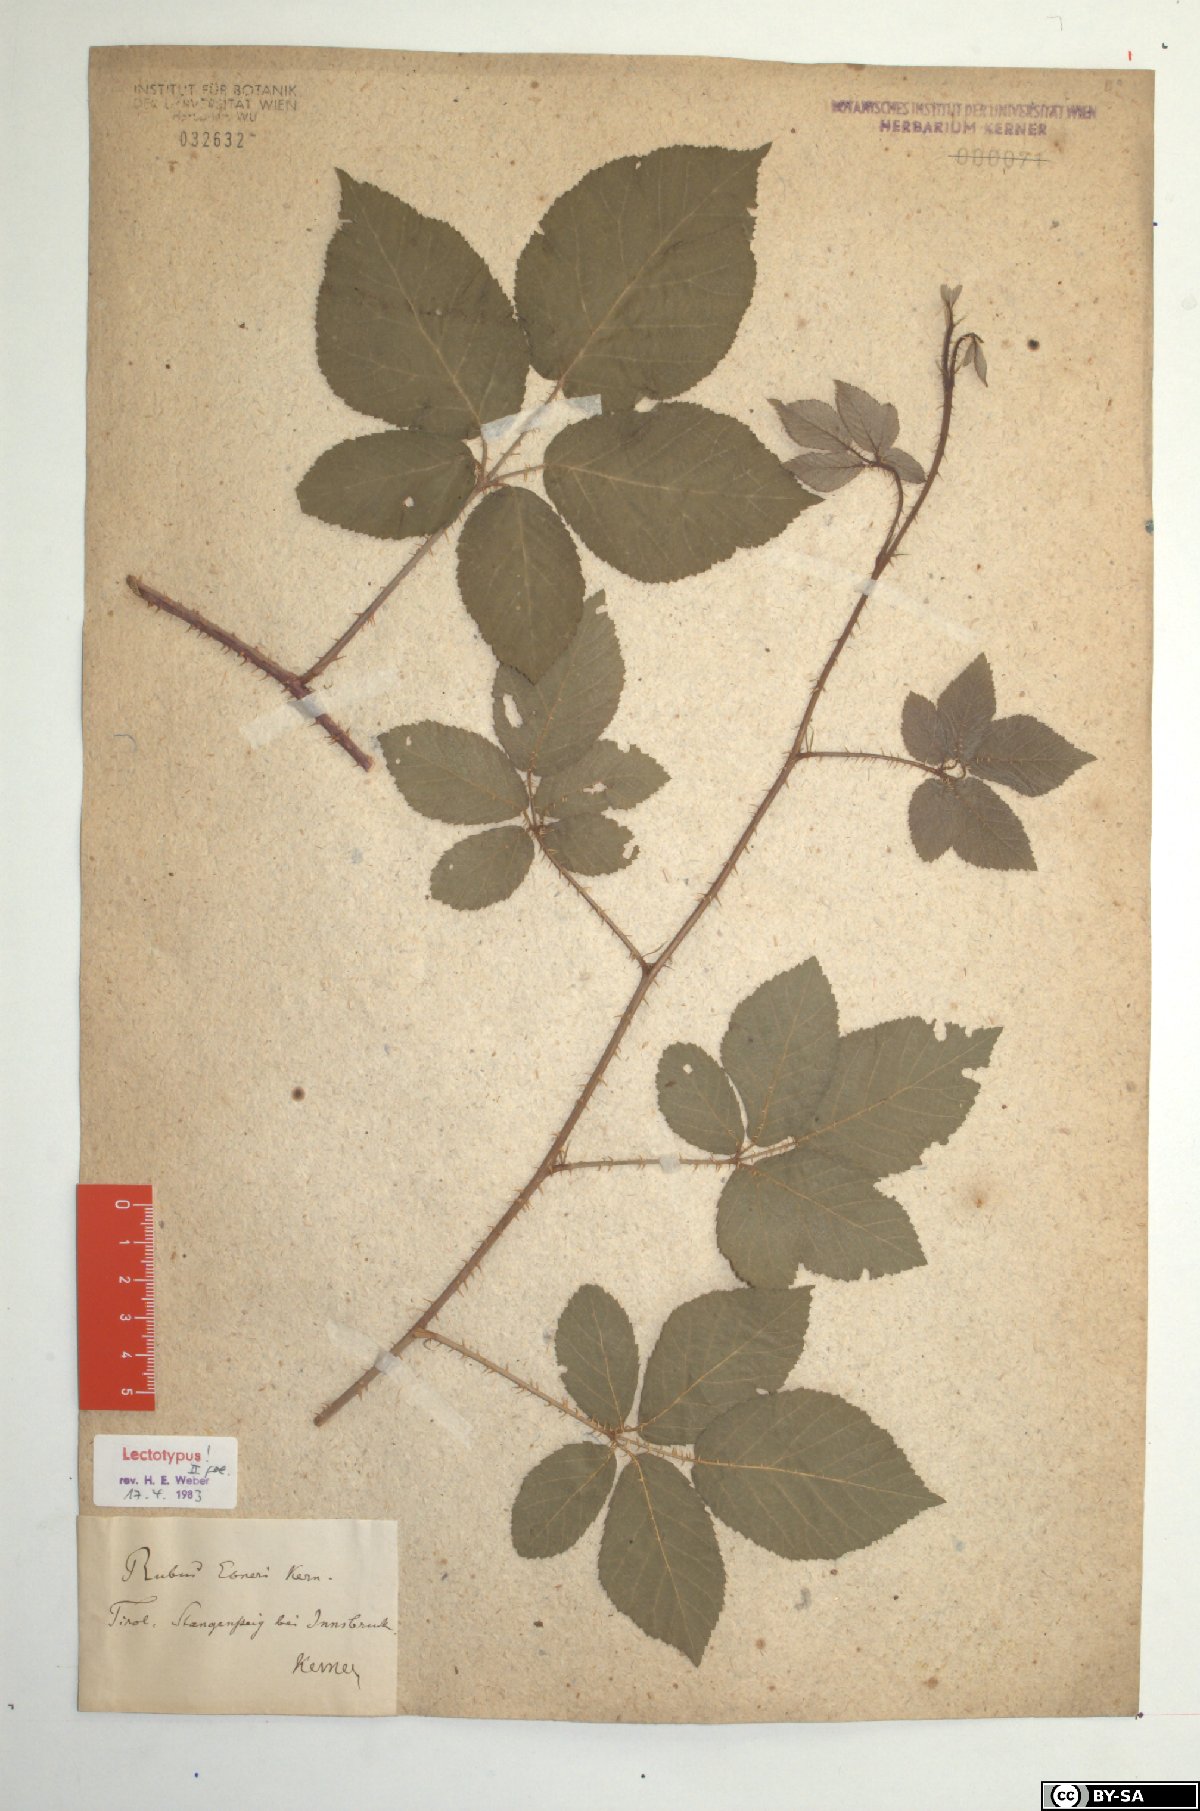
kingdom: Plantae
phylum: Tracheophyta
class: Magnoliopsida
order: Rosales
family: Rosaceae
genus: Rubus
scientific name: Rubus ebneri
